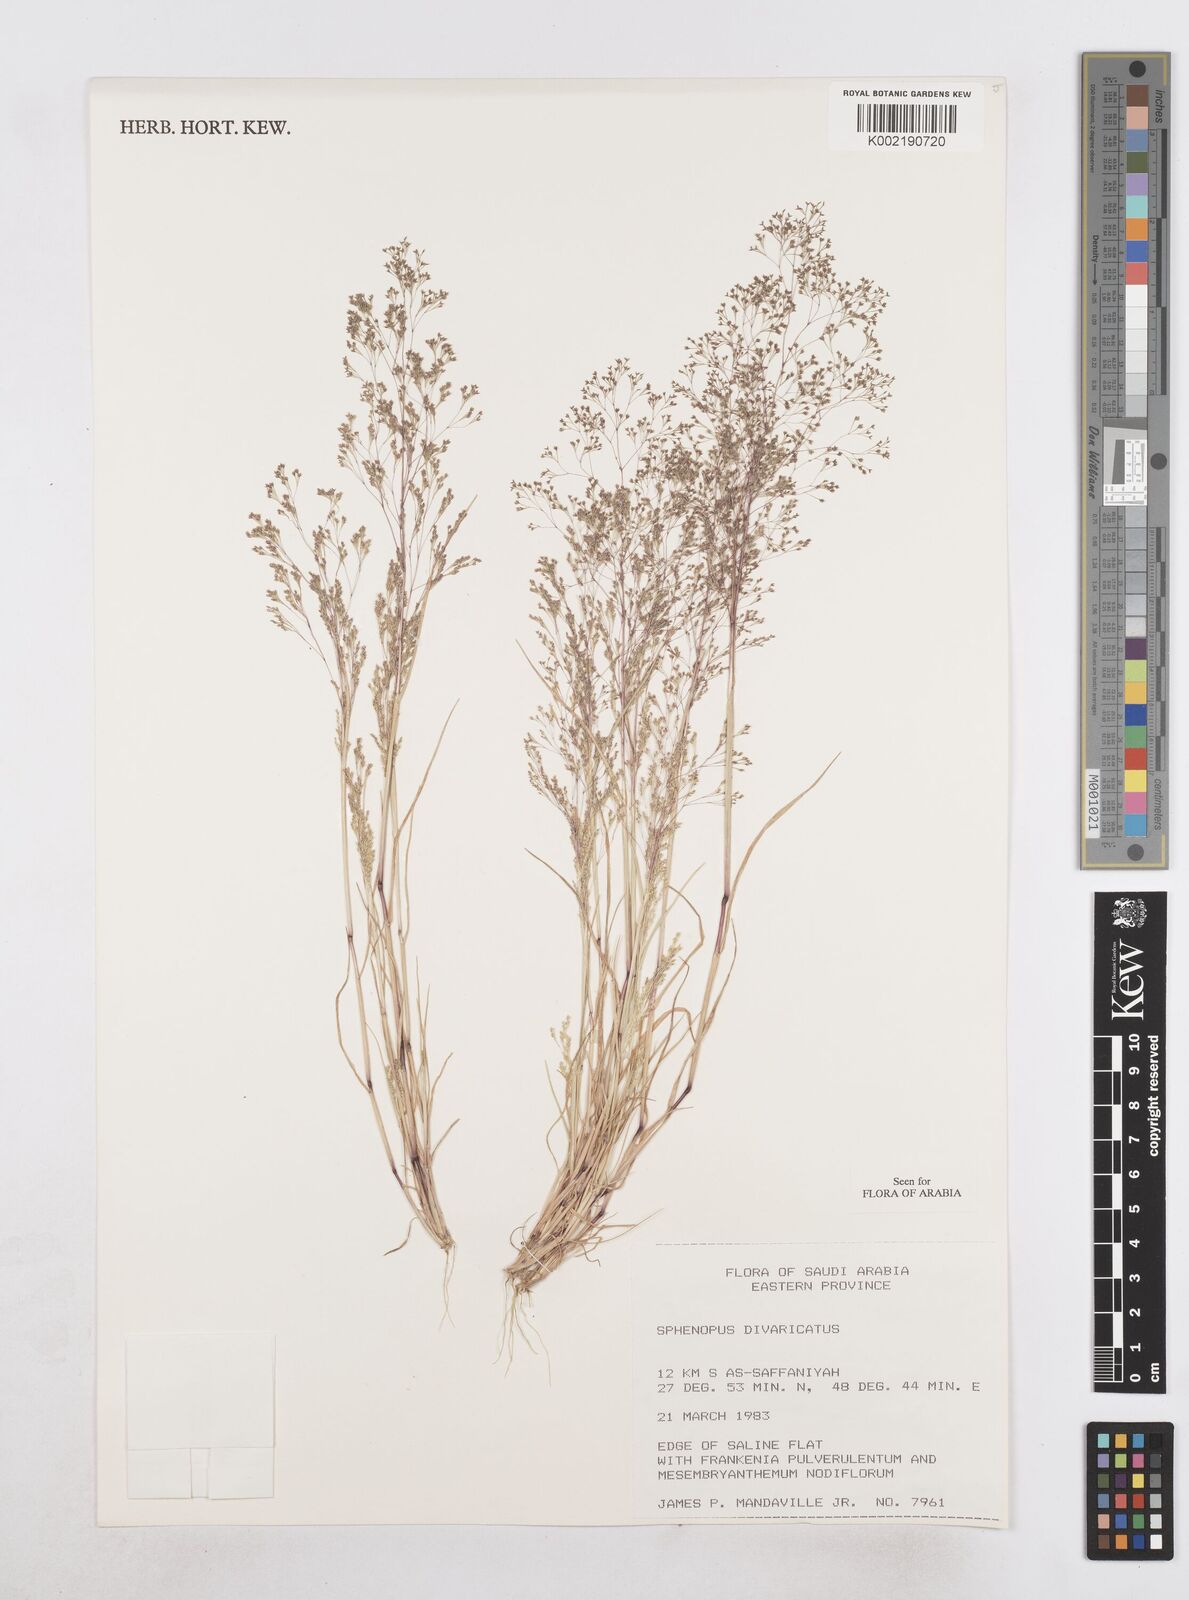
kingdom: Plantae
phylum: Tracheophyta
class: Liliopsida
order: Poales
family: Poaceae
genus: Sphenopus
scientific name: Sphenopus divaricatus
